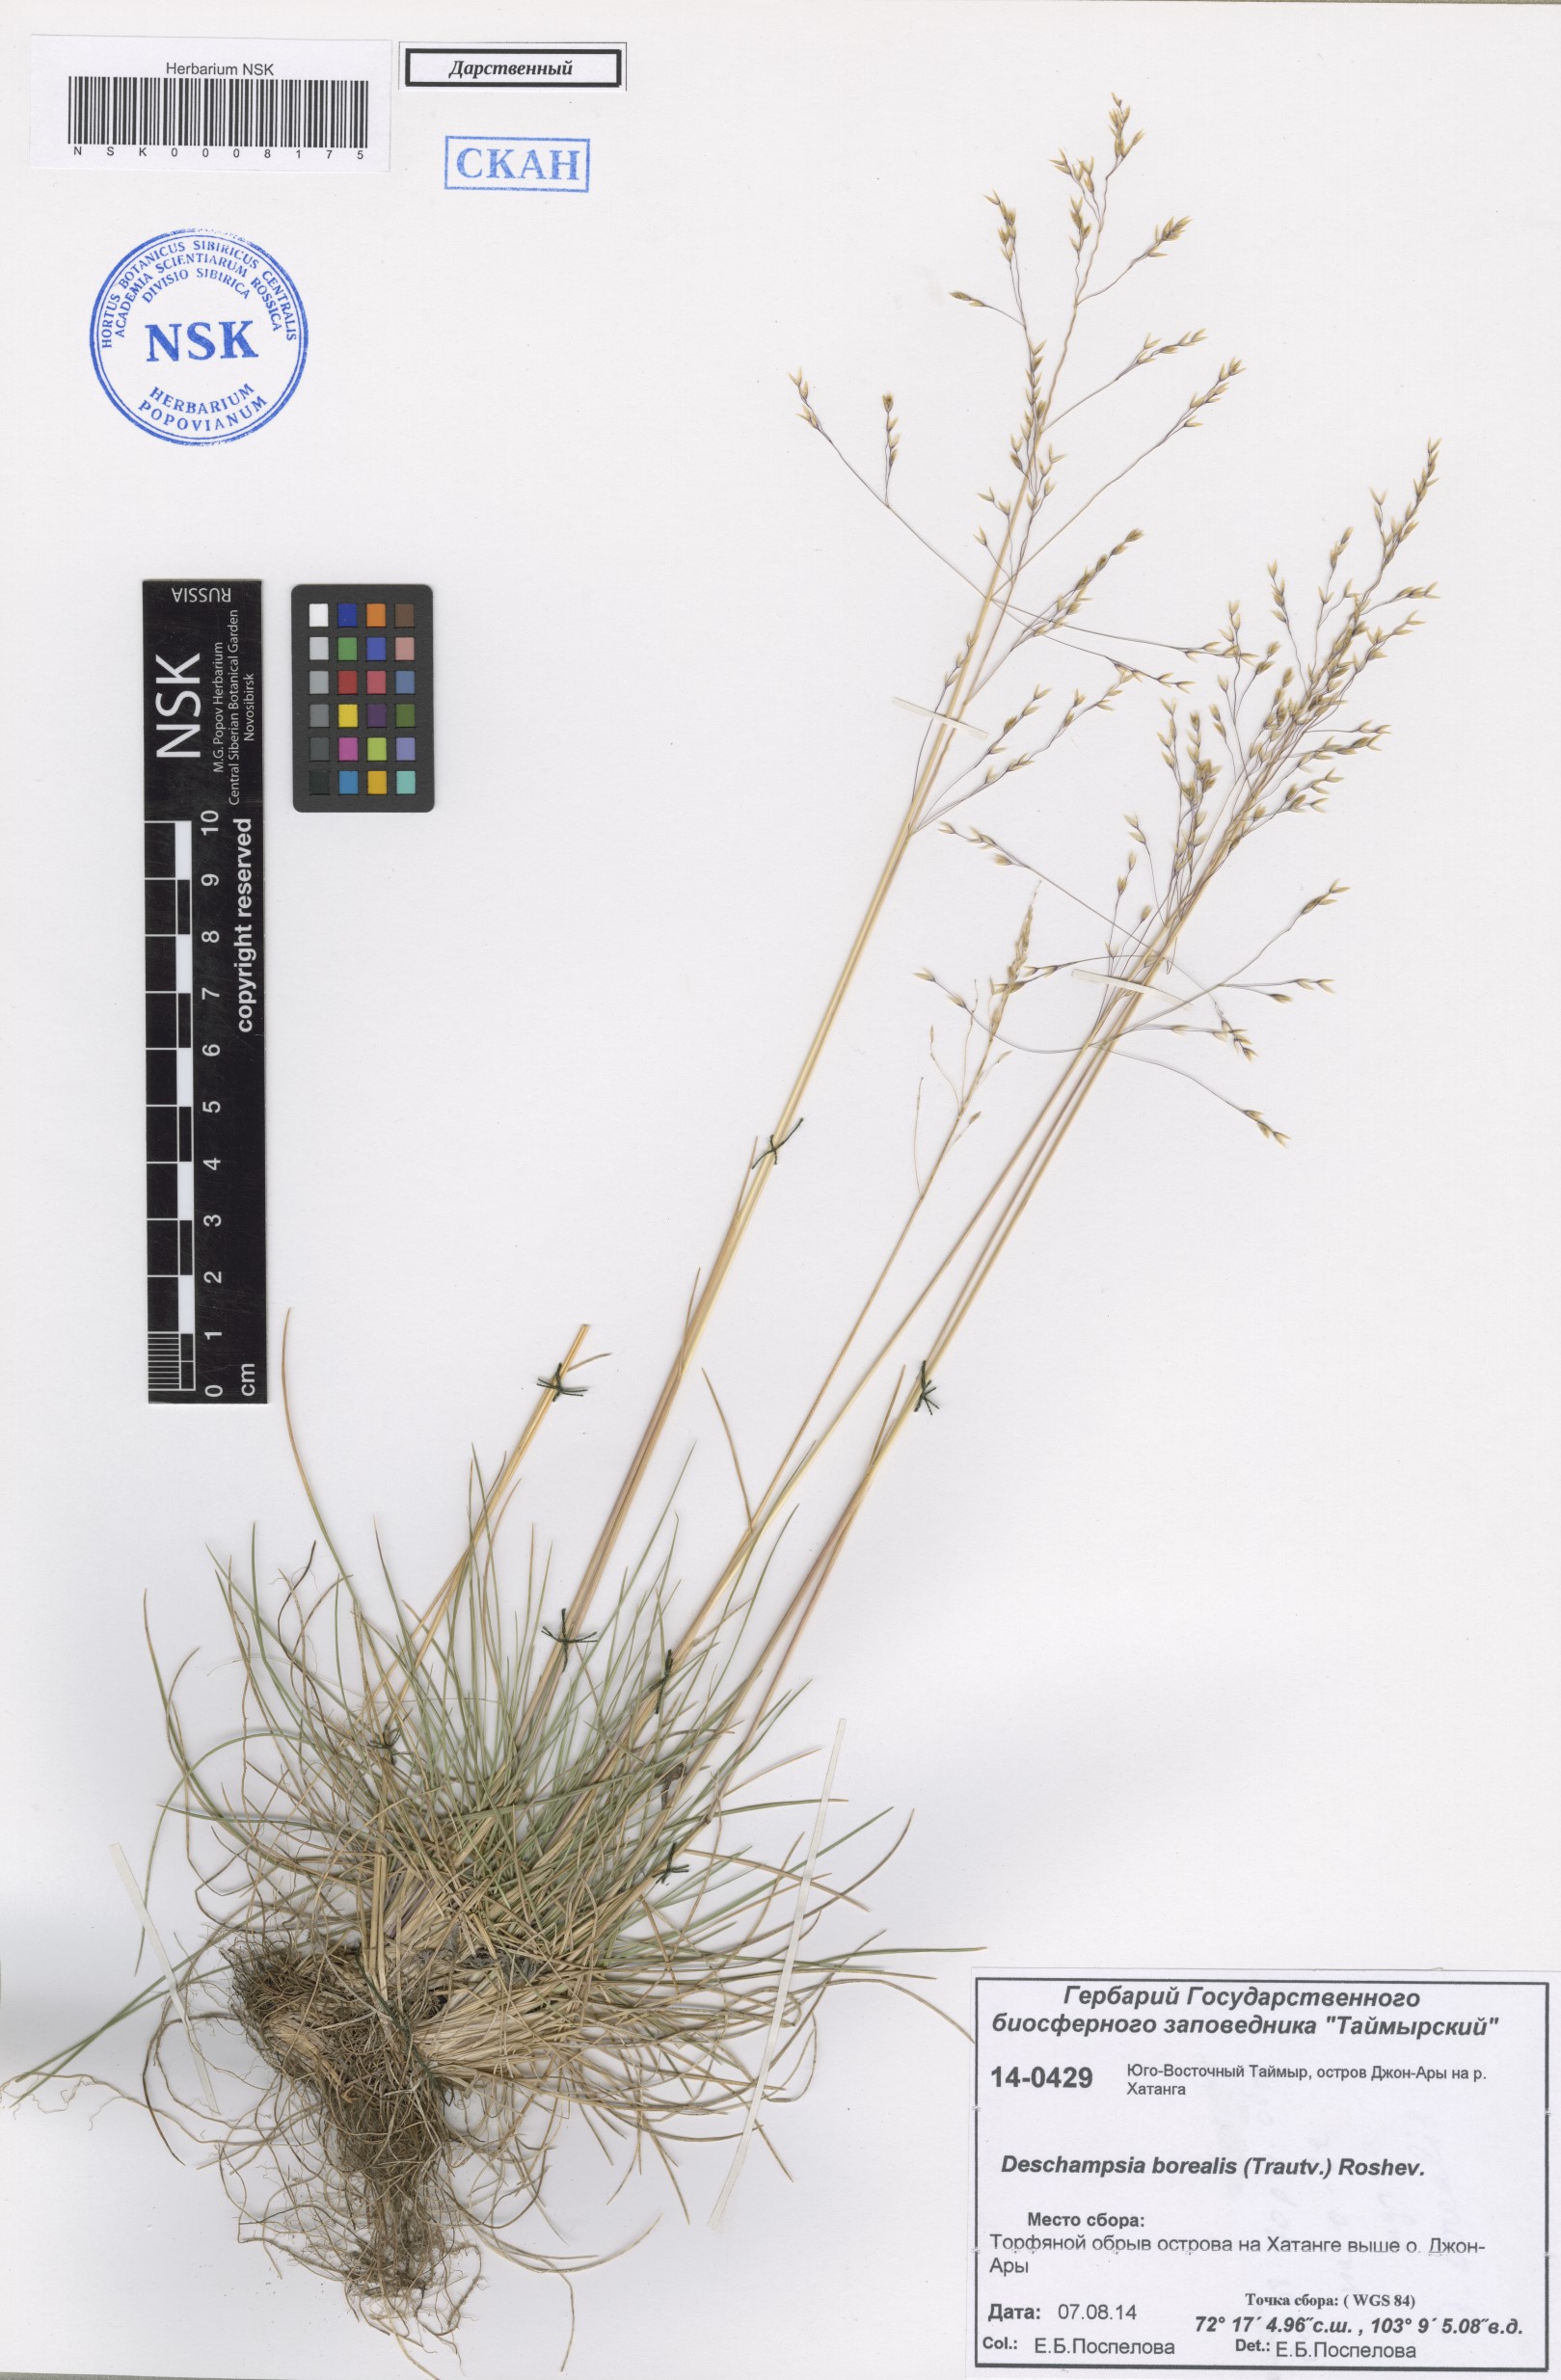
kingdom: Plantae
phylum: Tracheophyta
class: Liliopsida
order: Poales
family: Poaceae
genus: Deschampsia
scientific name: Deschampsia cespitosa
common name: Tufted hair-grass
